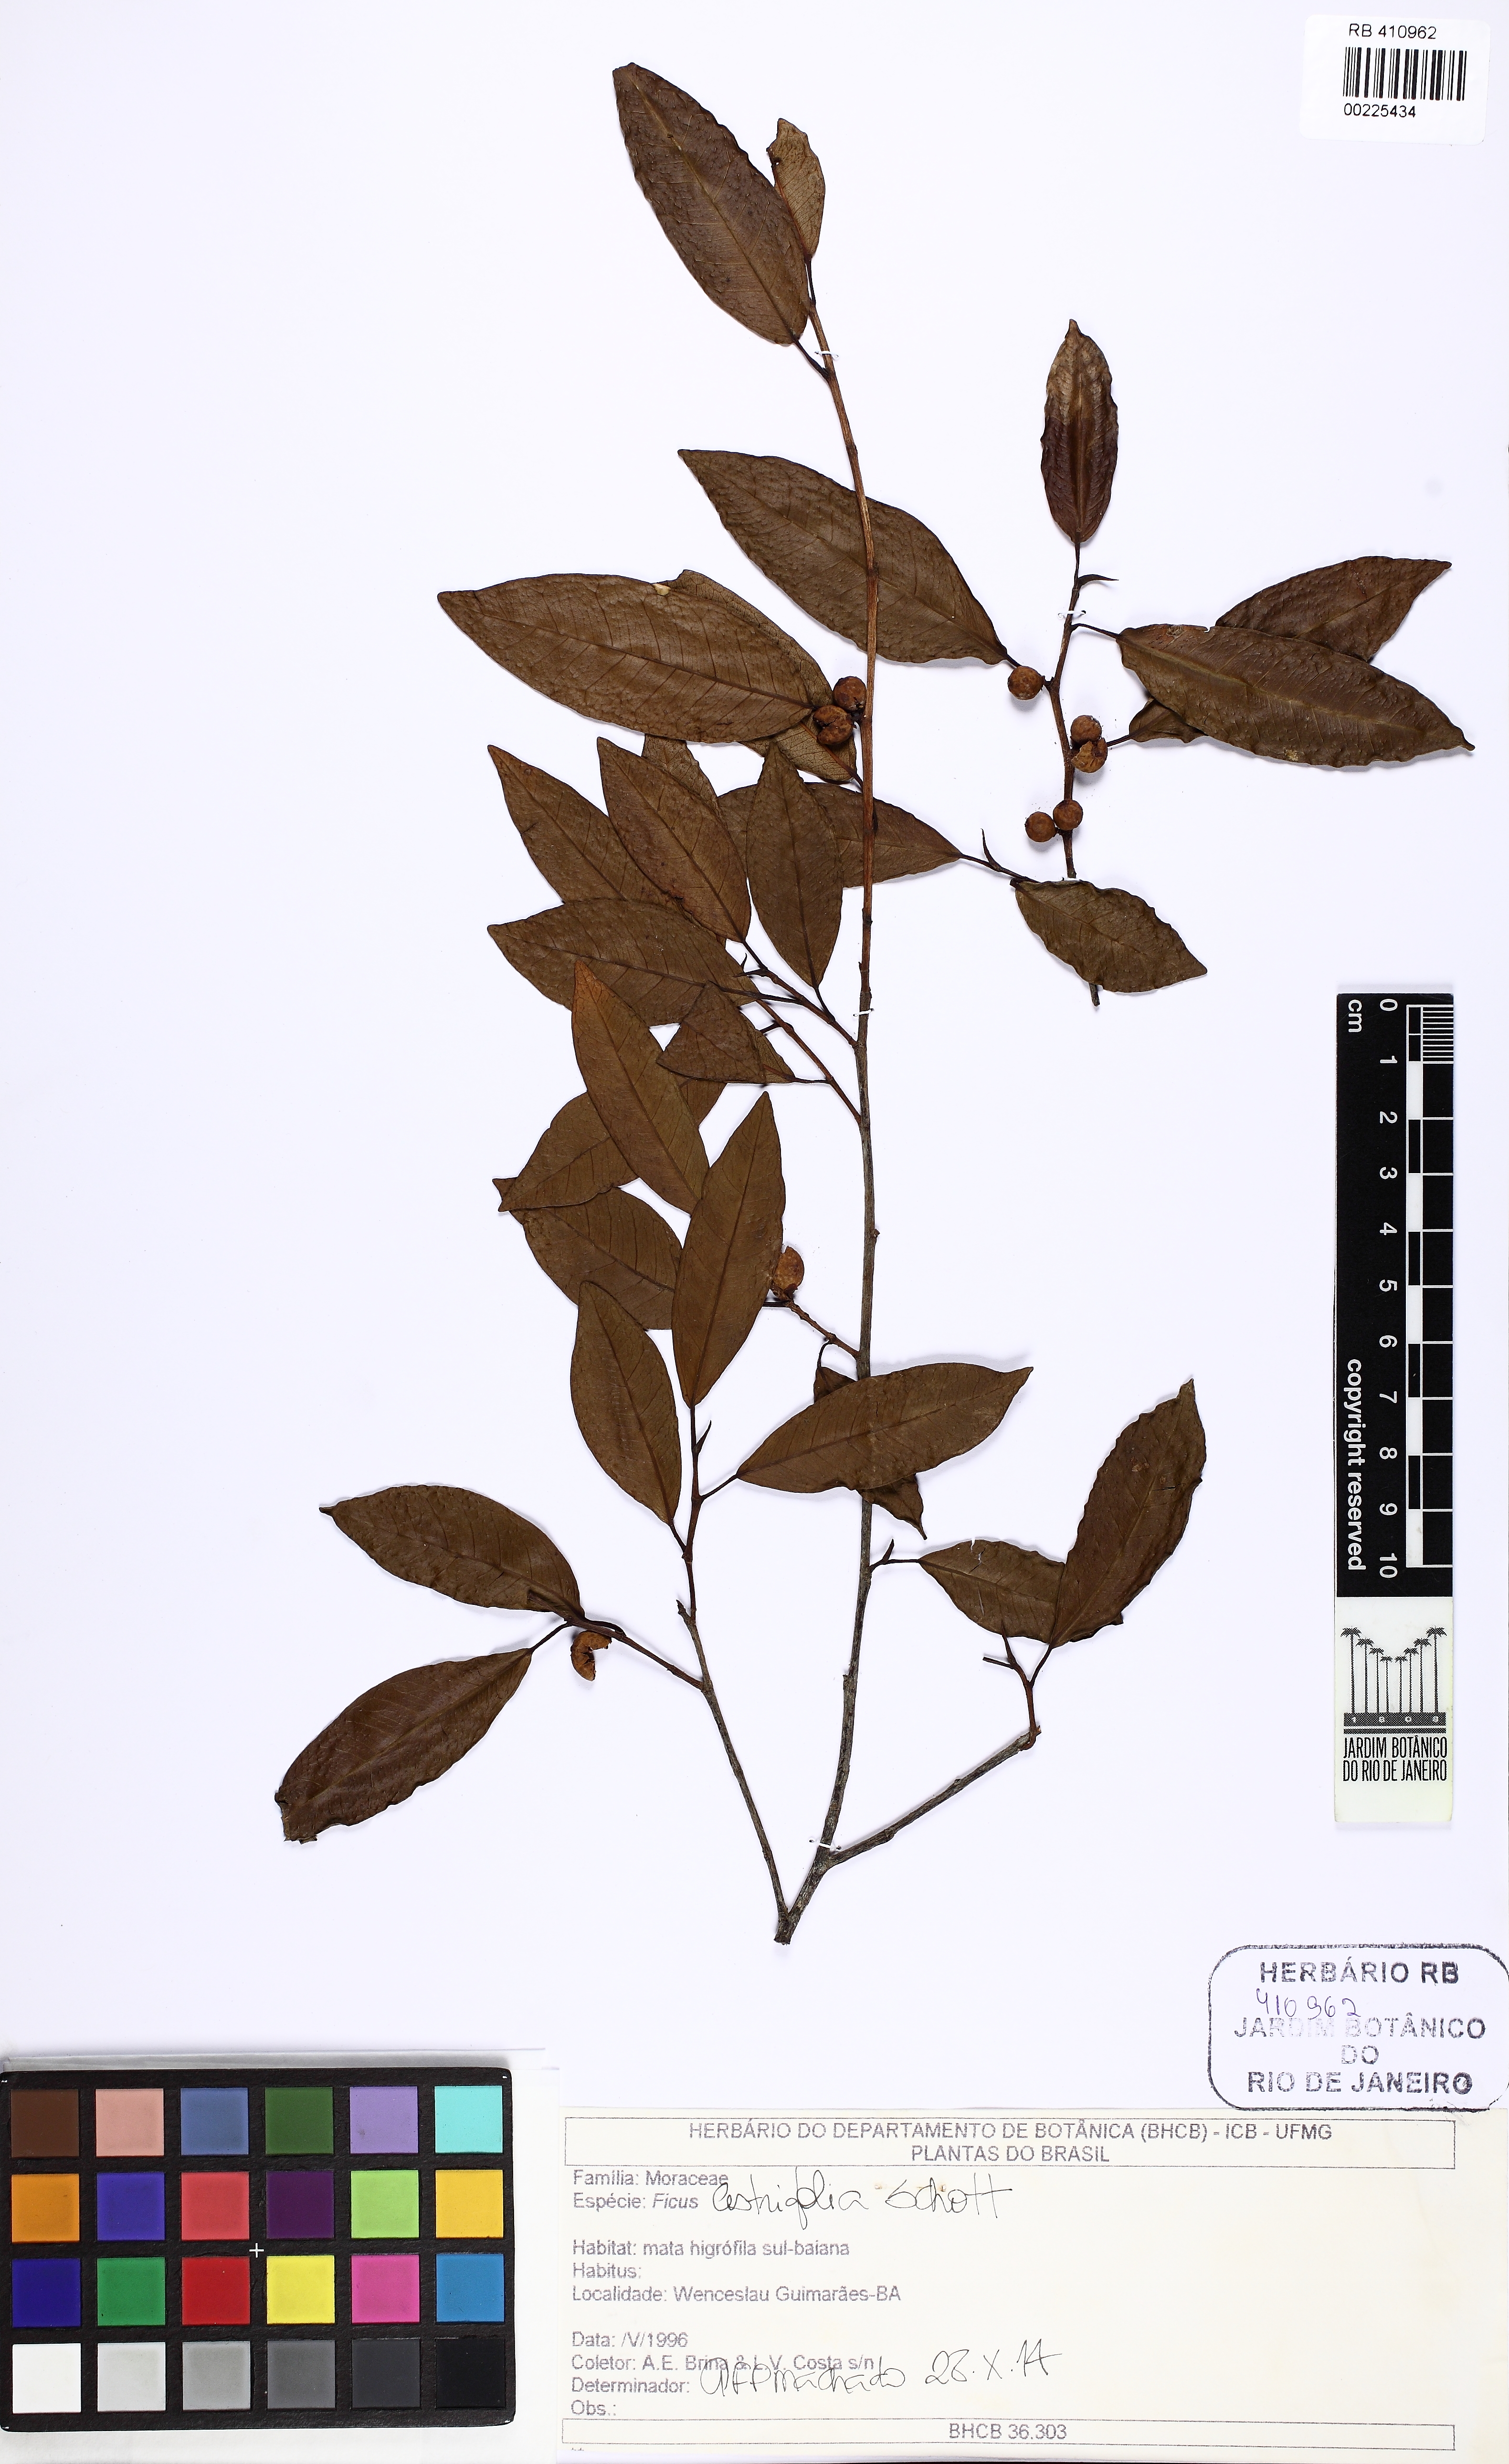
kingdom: Plantae
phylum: Tracheophyta
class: Magnoliopsida
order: Rosales
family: Moraceae
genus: Ficus
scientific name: Ficus cestrifolia
